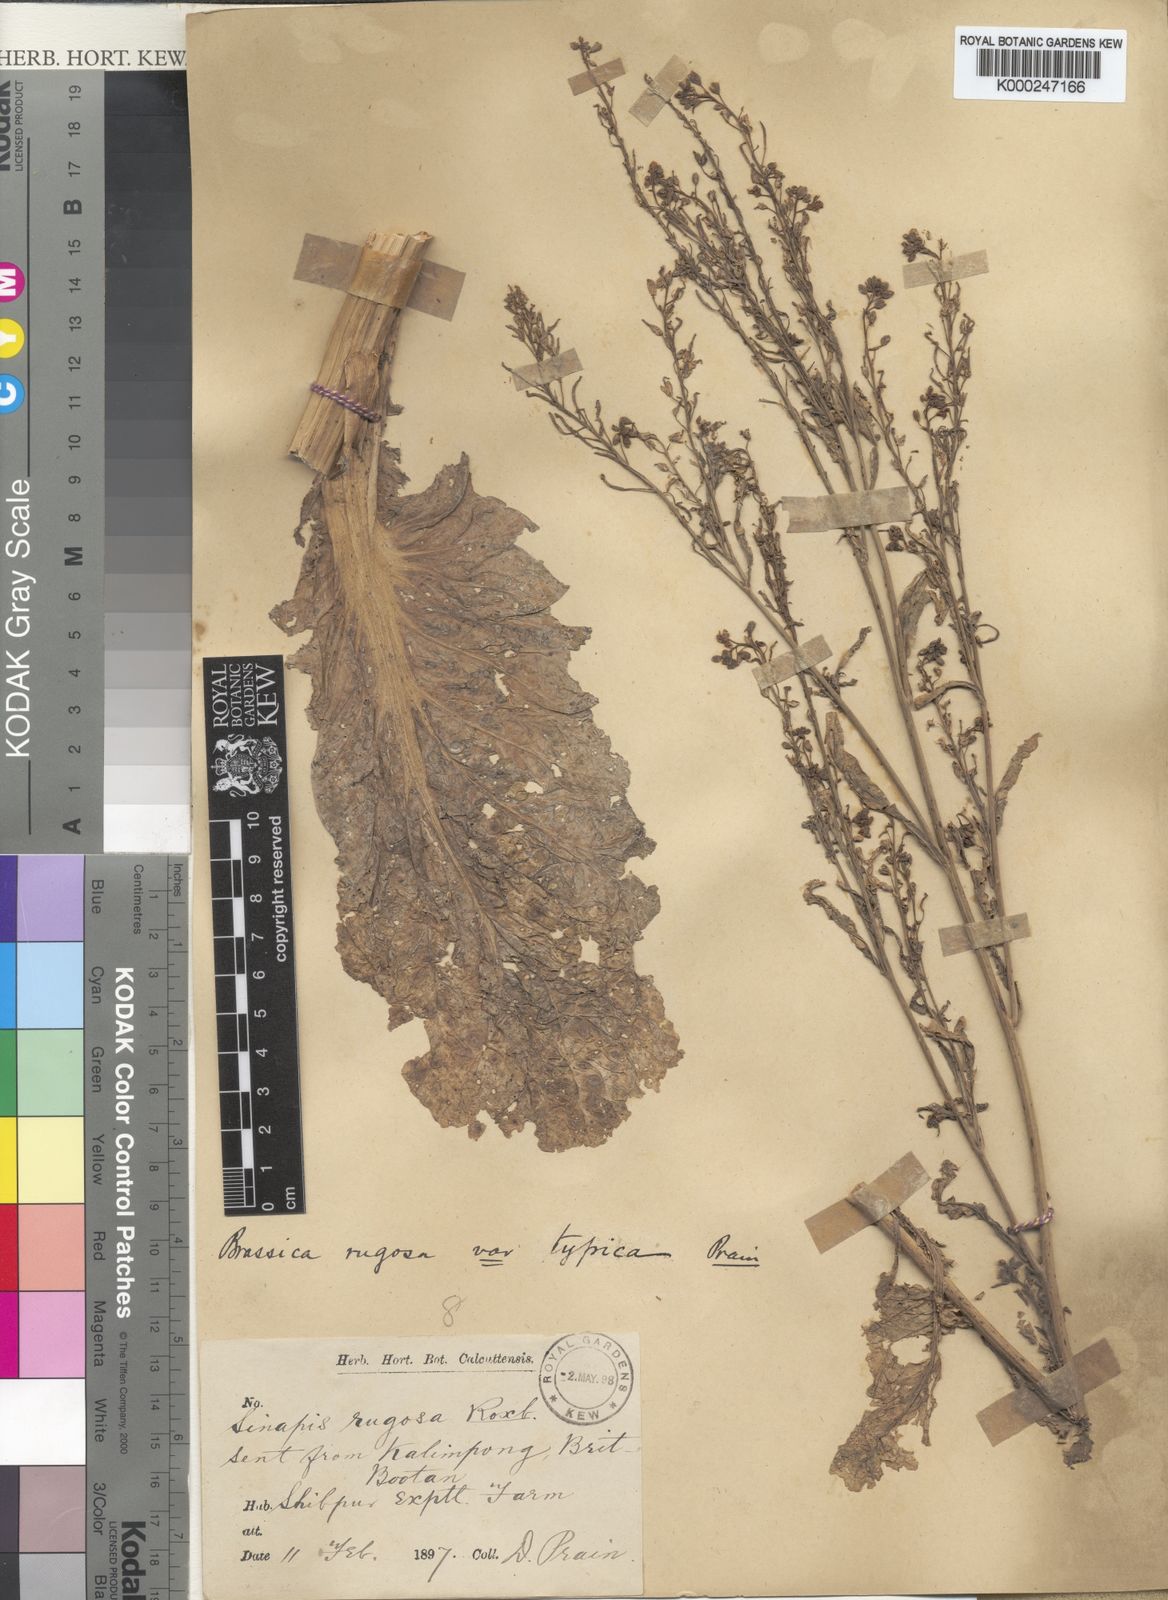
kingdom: Plantae
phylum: Tracheophyta
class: Magnoliopsida
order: Brassicales
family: Brassicaceae
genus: Brassica
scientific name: Brassica juncea
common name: Brown mustard
